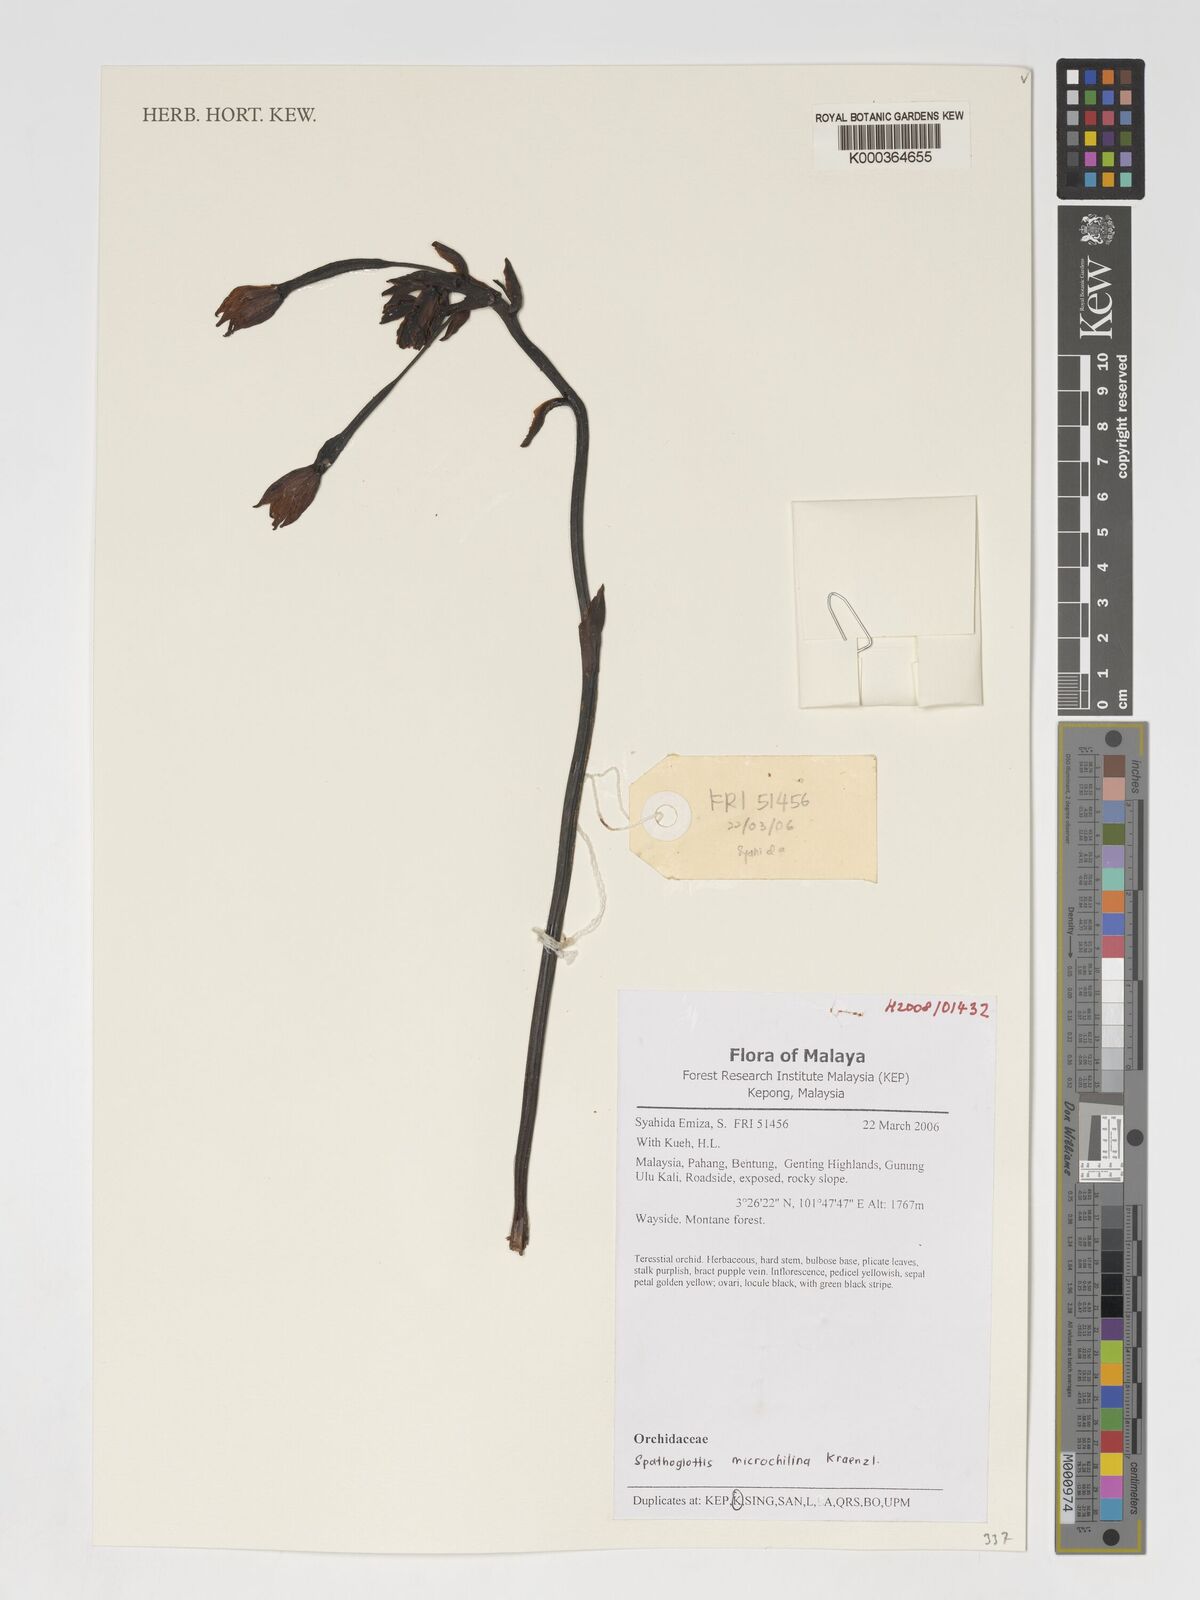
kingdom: Plantae
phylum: Tracheophyta
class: Liliopsida
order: Asparagales
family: Orchidaceae
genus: Spathoglottis
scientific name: Spathoglottis microchilina
